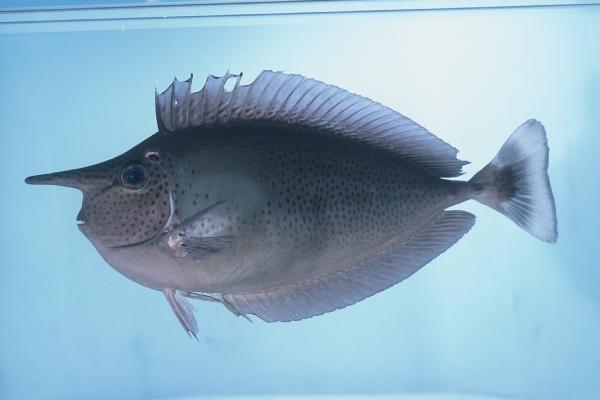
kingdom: Animalia
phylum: Chordata
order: Perciformes
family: Acanthuridae
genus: Naso
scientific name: Naso brevirostris
